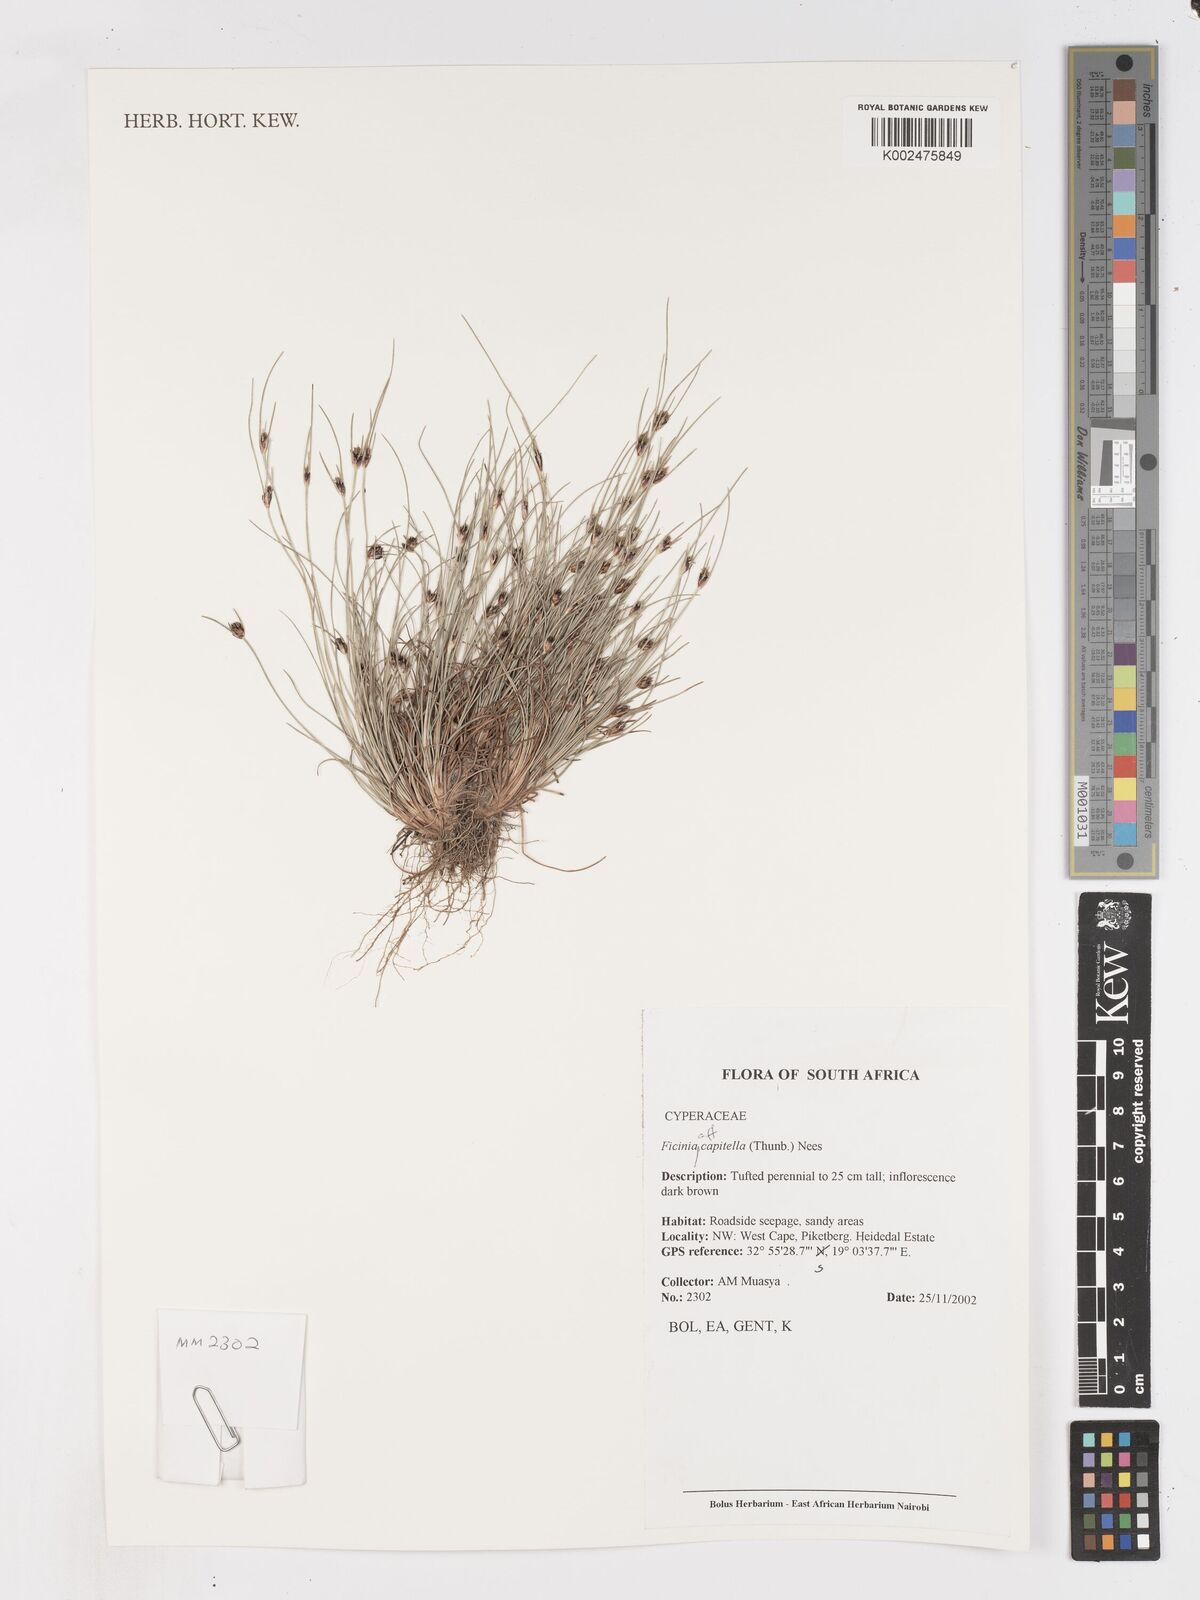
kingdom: Plantae
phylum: Tracheophyta
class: Liliopsida
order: Poales
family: Cyperaceae
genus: Ficinia
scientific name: Ficinia capitella
